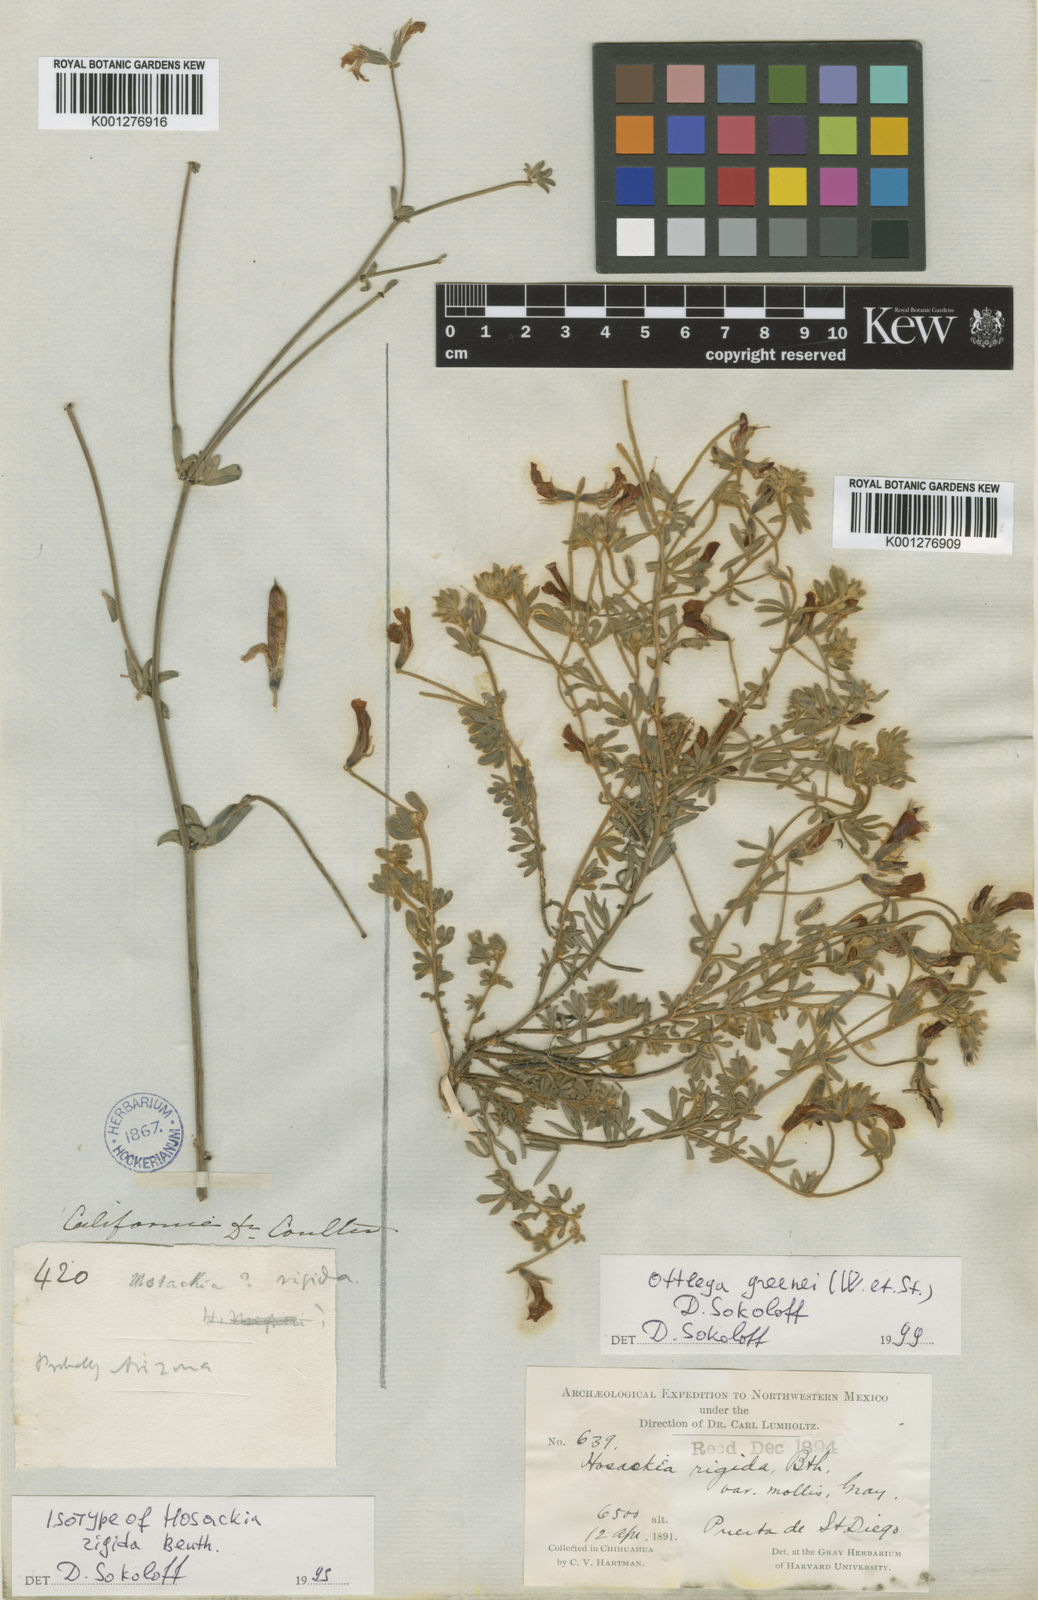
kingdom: Plantae
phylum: Tracheophyta
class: Magnoliopsida
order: Fabales
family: Fabaceae
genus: Acmispon
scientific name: Acmispon neomexicanus
